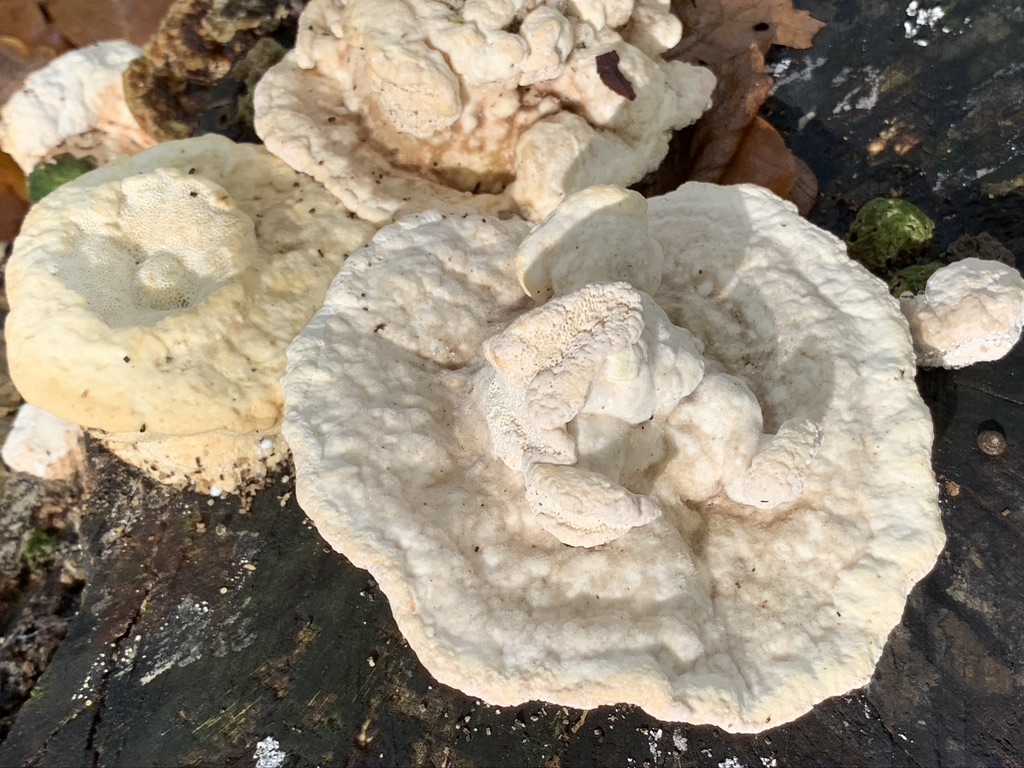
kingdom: Fungi
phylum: Basidiomycota
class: Agaricomycetes
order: Polyporales
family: Polyporaceae
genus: Trametes
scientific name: Trametes gibbosa
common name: puklet læderporesvamp
